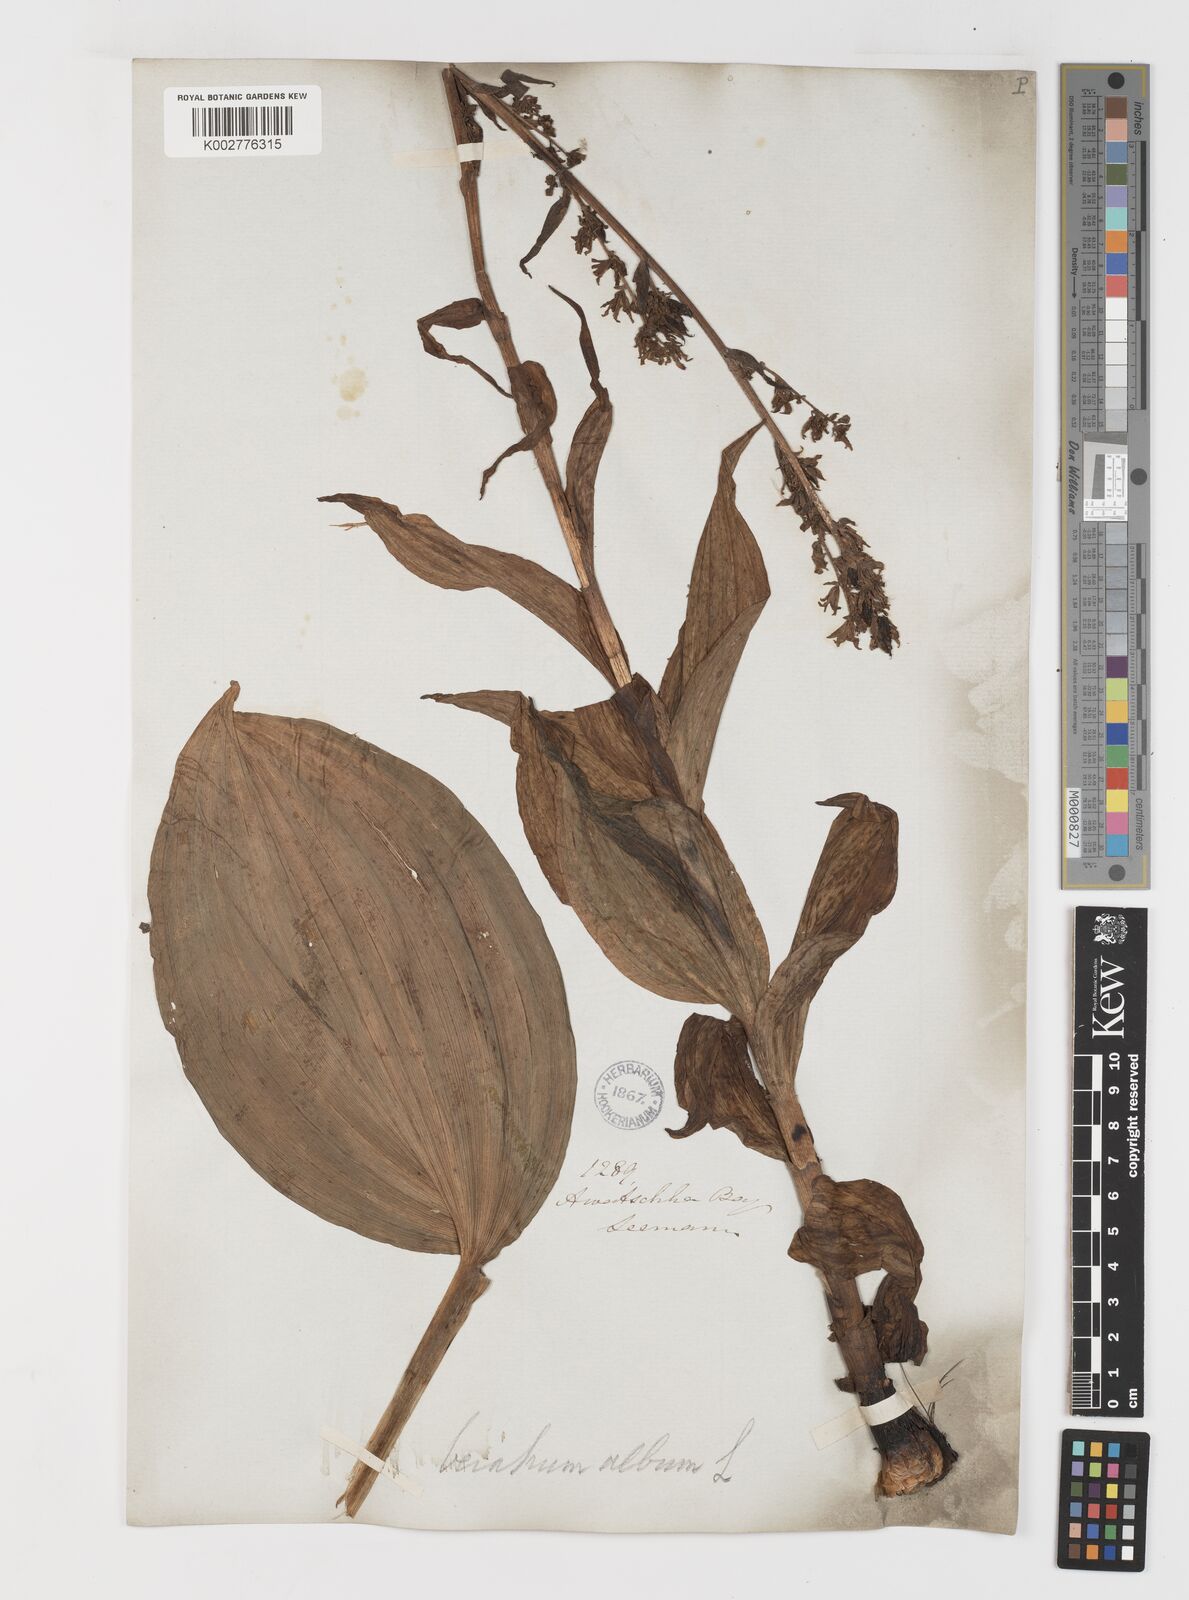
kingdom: Plantae
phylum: Tracheophyta
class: Liliopsida
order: Liliales
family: Melanthiaceae
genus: Veratrum
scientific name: Veratrum album
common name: White veratrum
